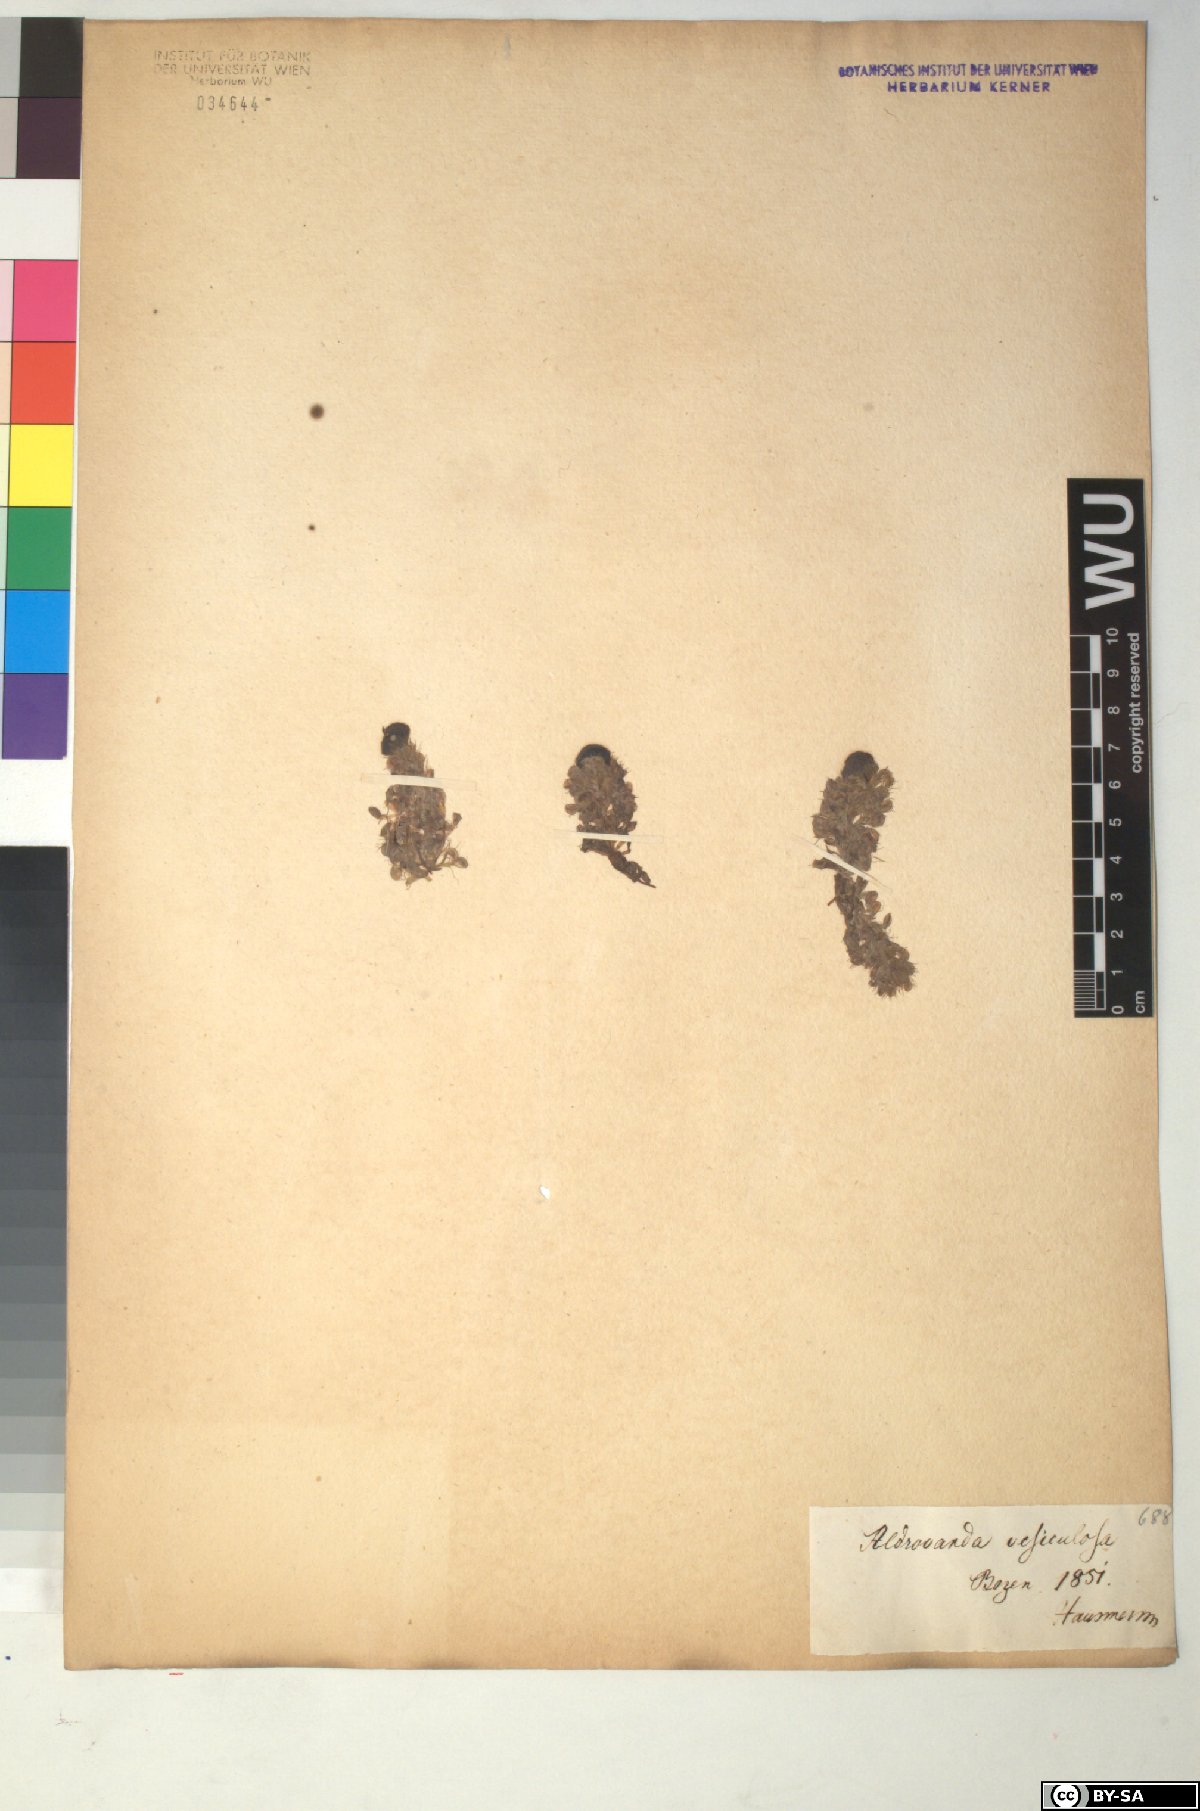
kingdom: Plantae
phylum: Tracheophyta
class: Magnoliopsida
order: Caryophyllales
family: Droseraceae
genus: Aldrovanda
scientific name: Aldrovanda vesiculosa
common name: Waterwheel plant
